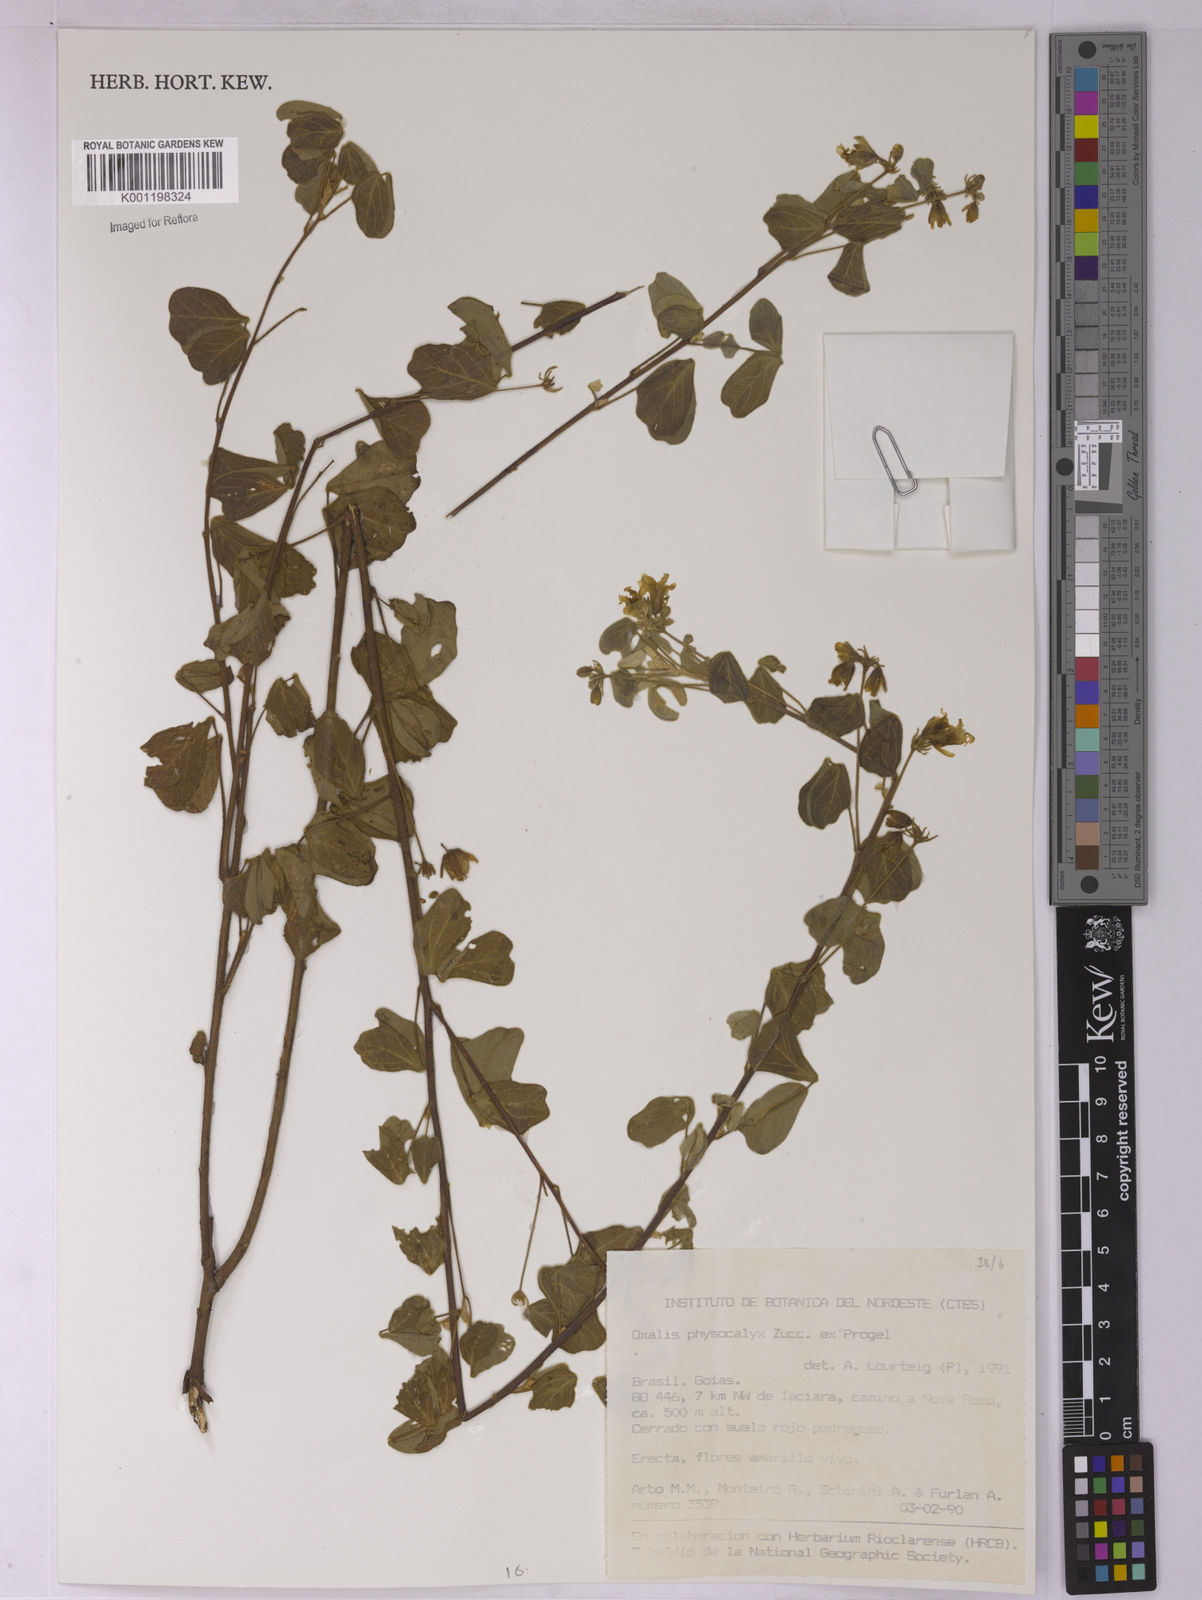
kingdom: Plantae
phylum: Tracheophyta
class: Magnoliopsida
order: Oxalidales
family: Oxalidaceae
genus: Oxalis
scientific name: Oxalis physocalyx
